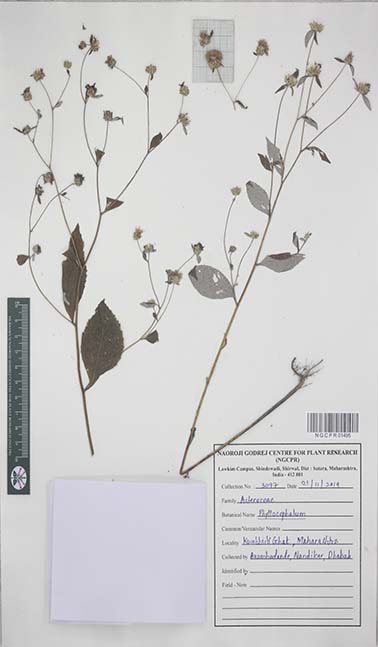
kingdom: Plantae
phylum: Tracheophyta
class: Magnoliopsida
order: Asterales
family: Asteraceae
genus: Phyllocephalum
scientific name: Phyllocephalum
